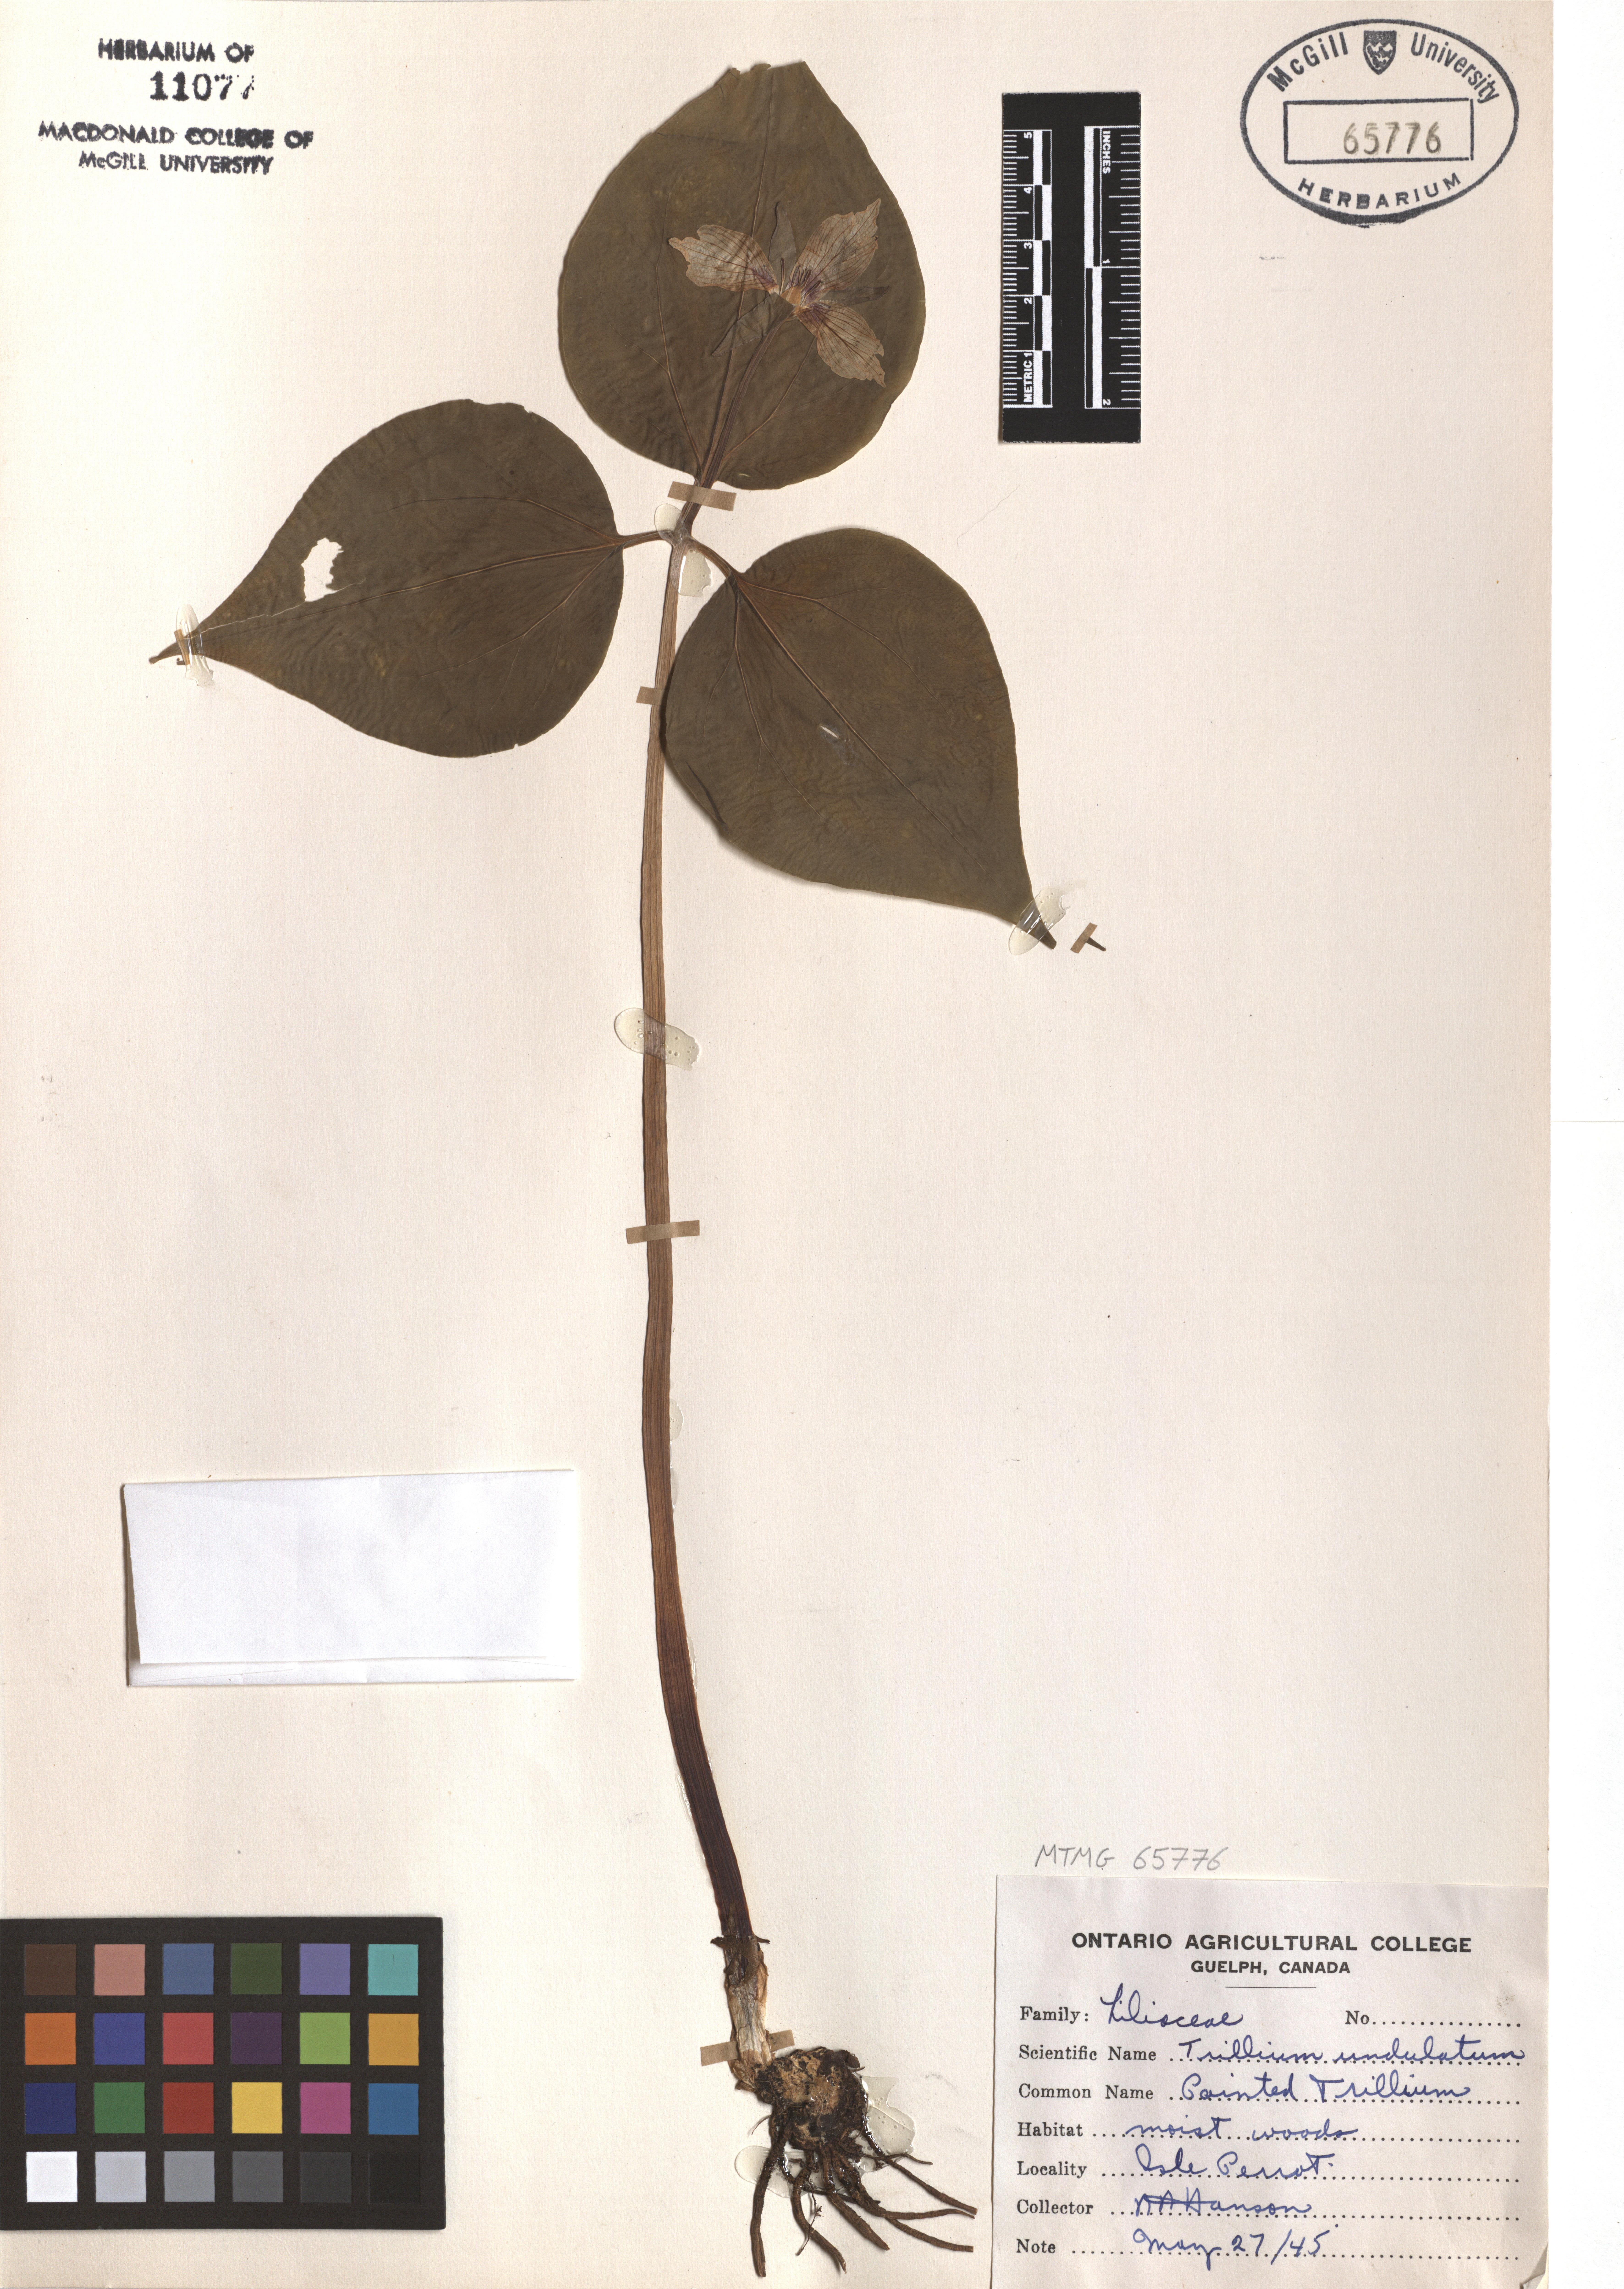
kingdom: Plantae
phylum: Tracheophyta
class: Liliopsida
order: Liliales
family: Melanthiaceae
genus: Trillium
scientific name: Trillium undulatum
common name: Paint trillium
